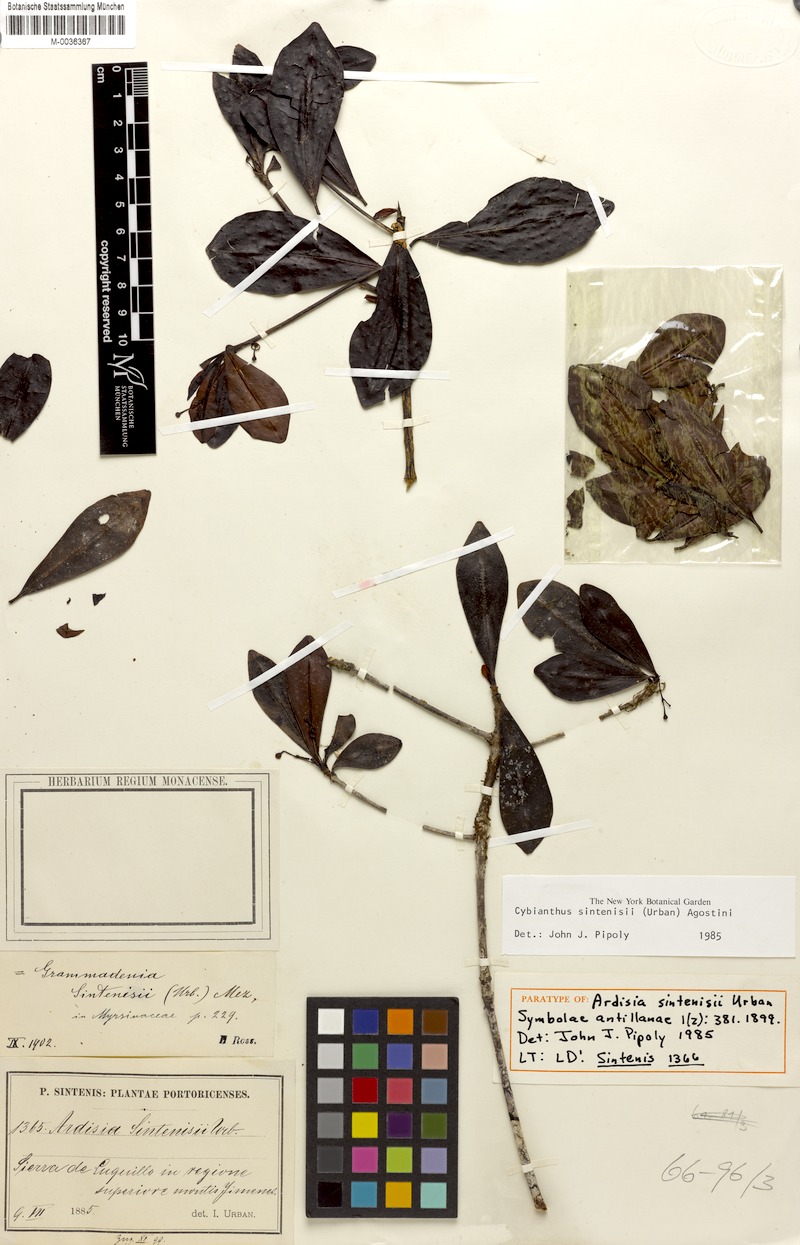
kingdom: Plantae
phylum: Tracheophyta
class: Magnoliopsida
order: Ericales
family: Primulaceae
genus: Cybianthus
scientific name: Cybianthus sintenisii
